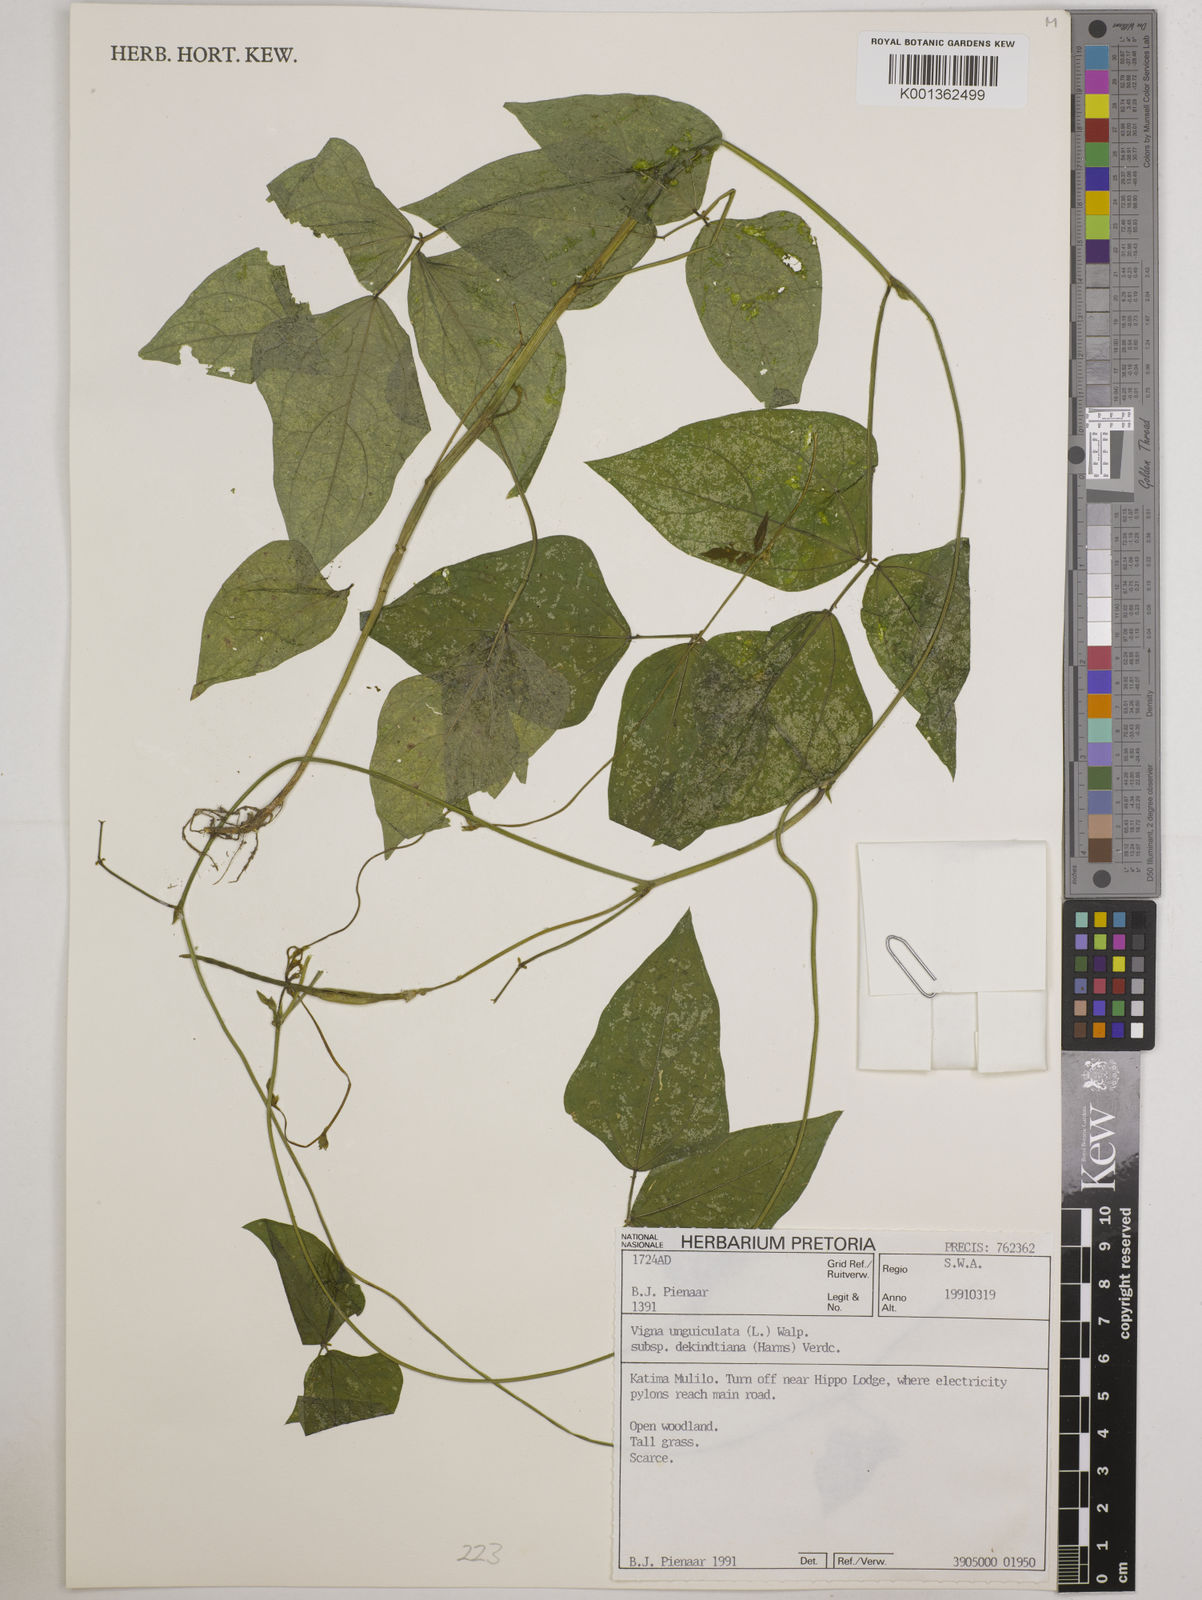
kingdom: Plantae
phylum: Tracheophyta
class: Magnoliopsida
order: Fabales
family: Fabaceae
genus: Vigna
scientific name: Vigna
